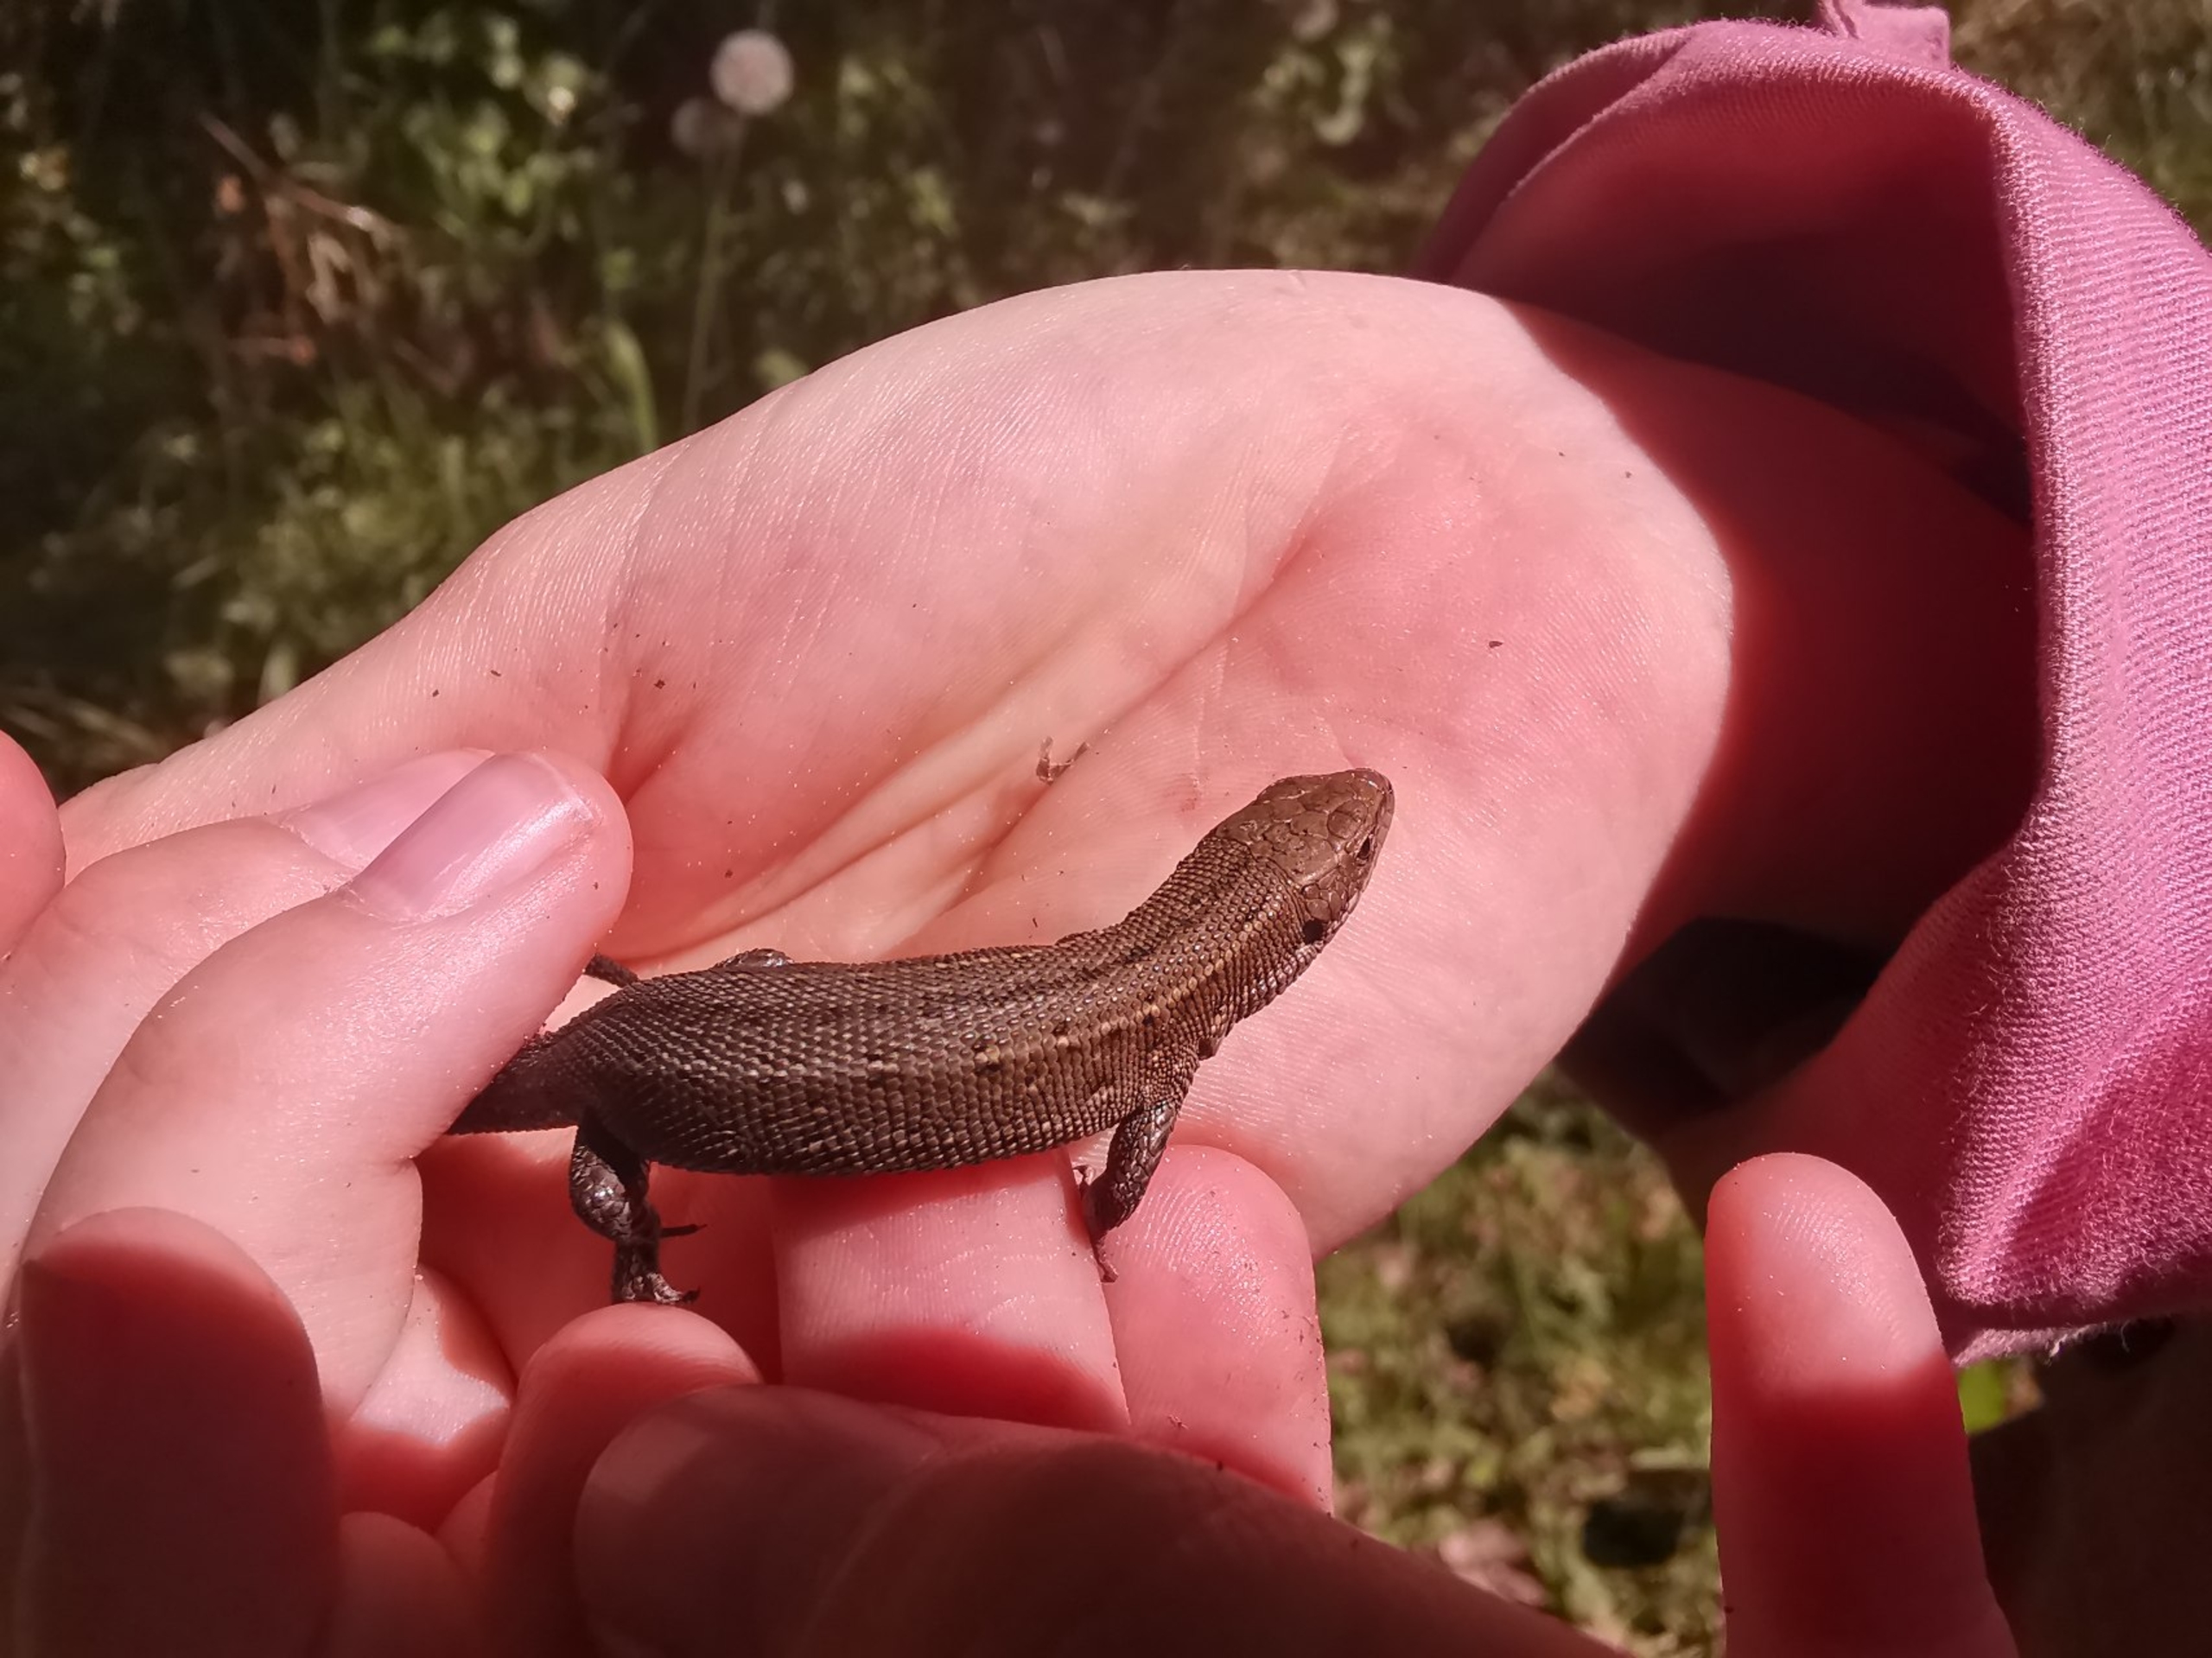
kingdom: Animalia
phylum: Chordata
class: Squamata
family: Lacertidae
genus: Zootoca
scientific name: Zootoca vivipara
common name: Skovfirben
